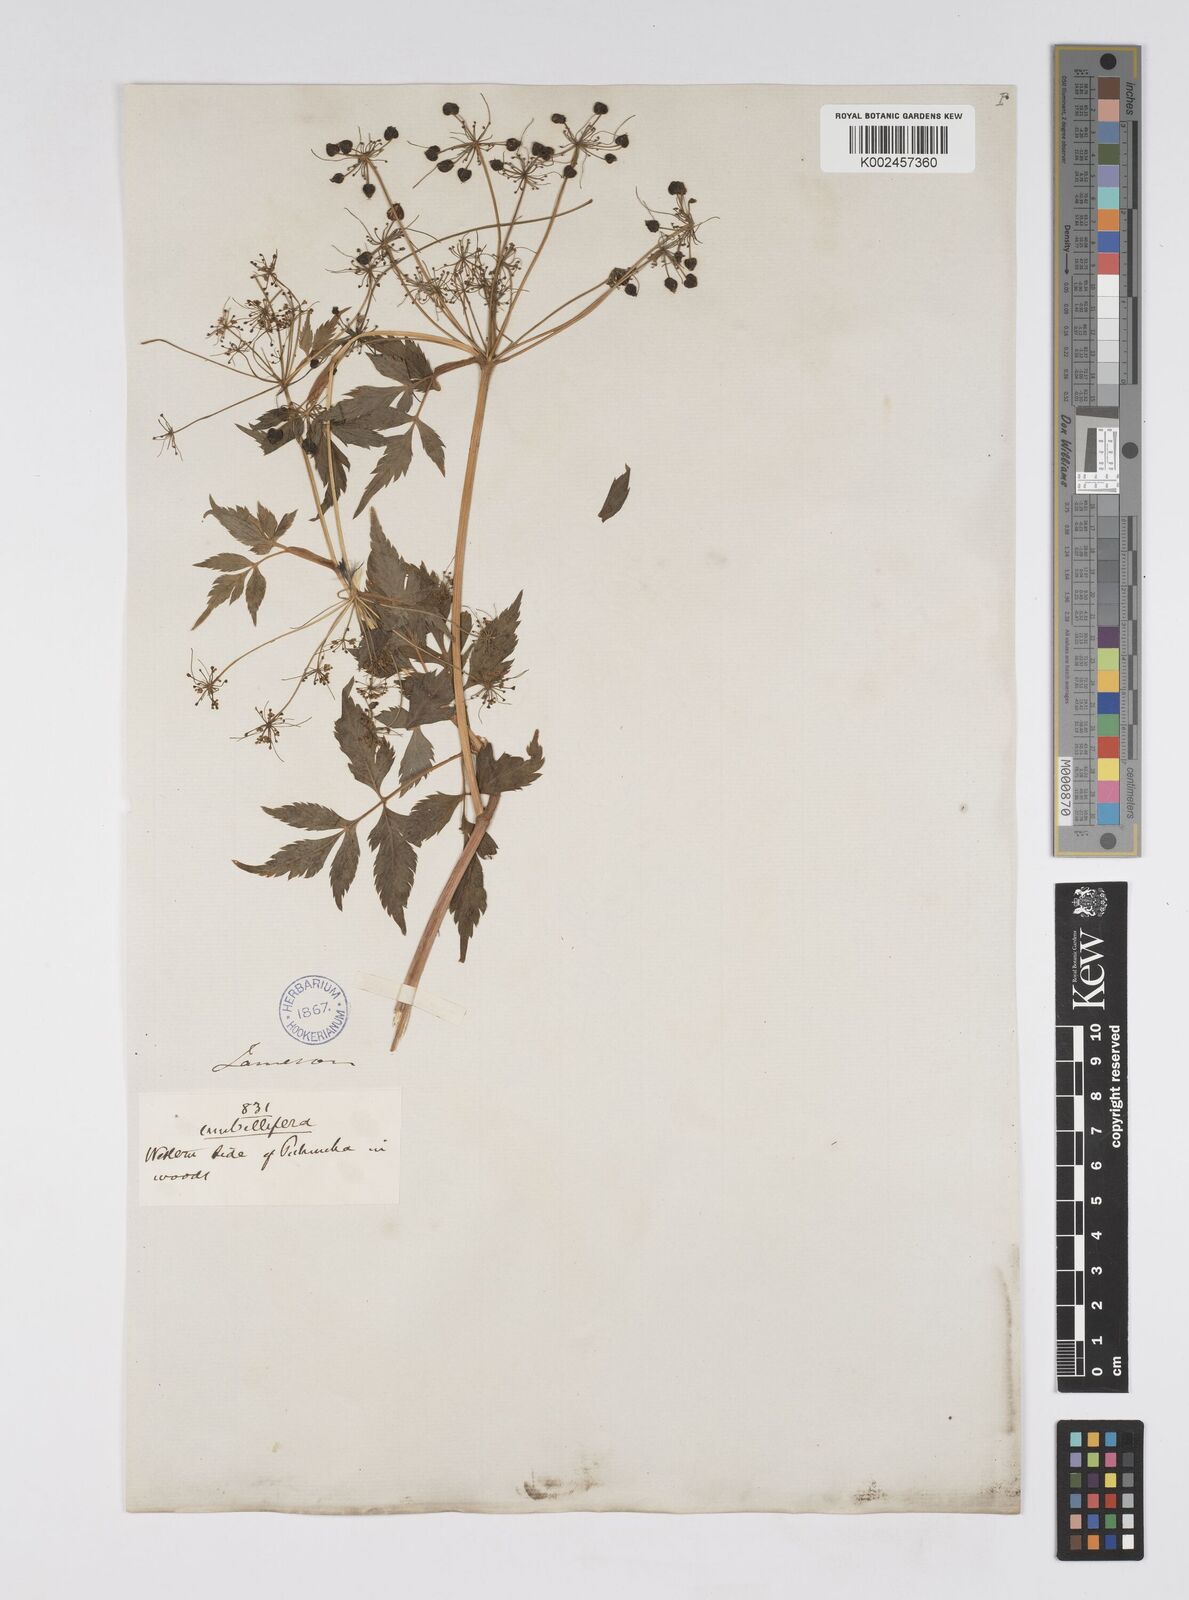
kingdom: Plantae
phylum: Tracheophyta
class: Magnoliopsida
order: Apiales
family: Apiaceae
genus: Neonelsonia
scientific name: Neonelsonia acuminata
